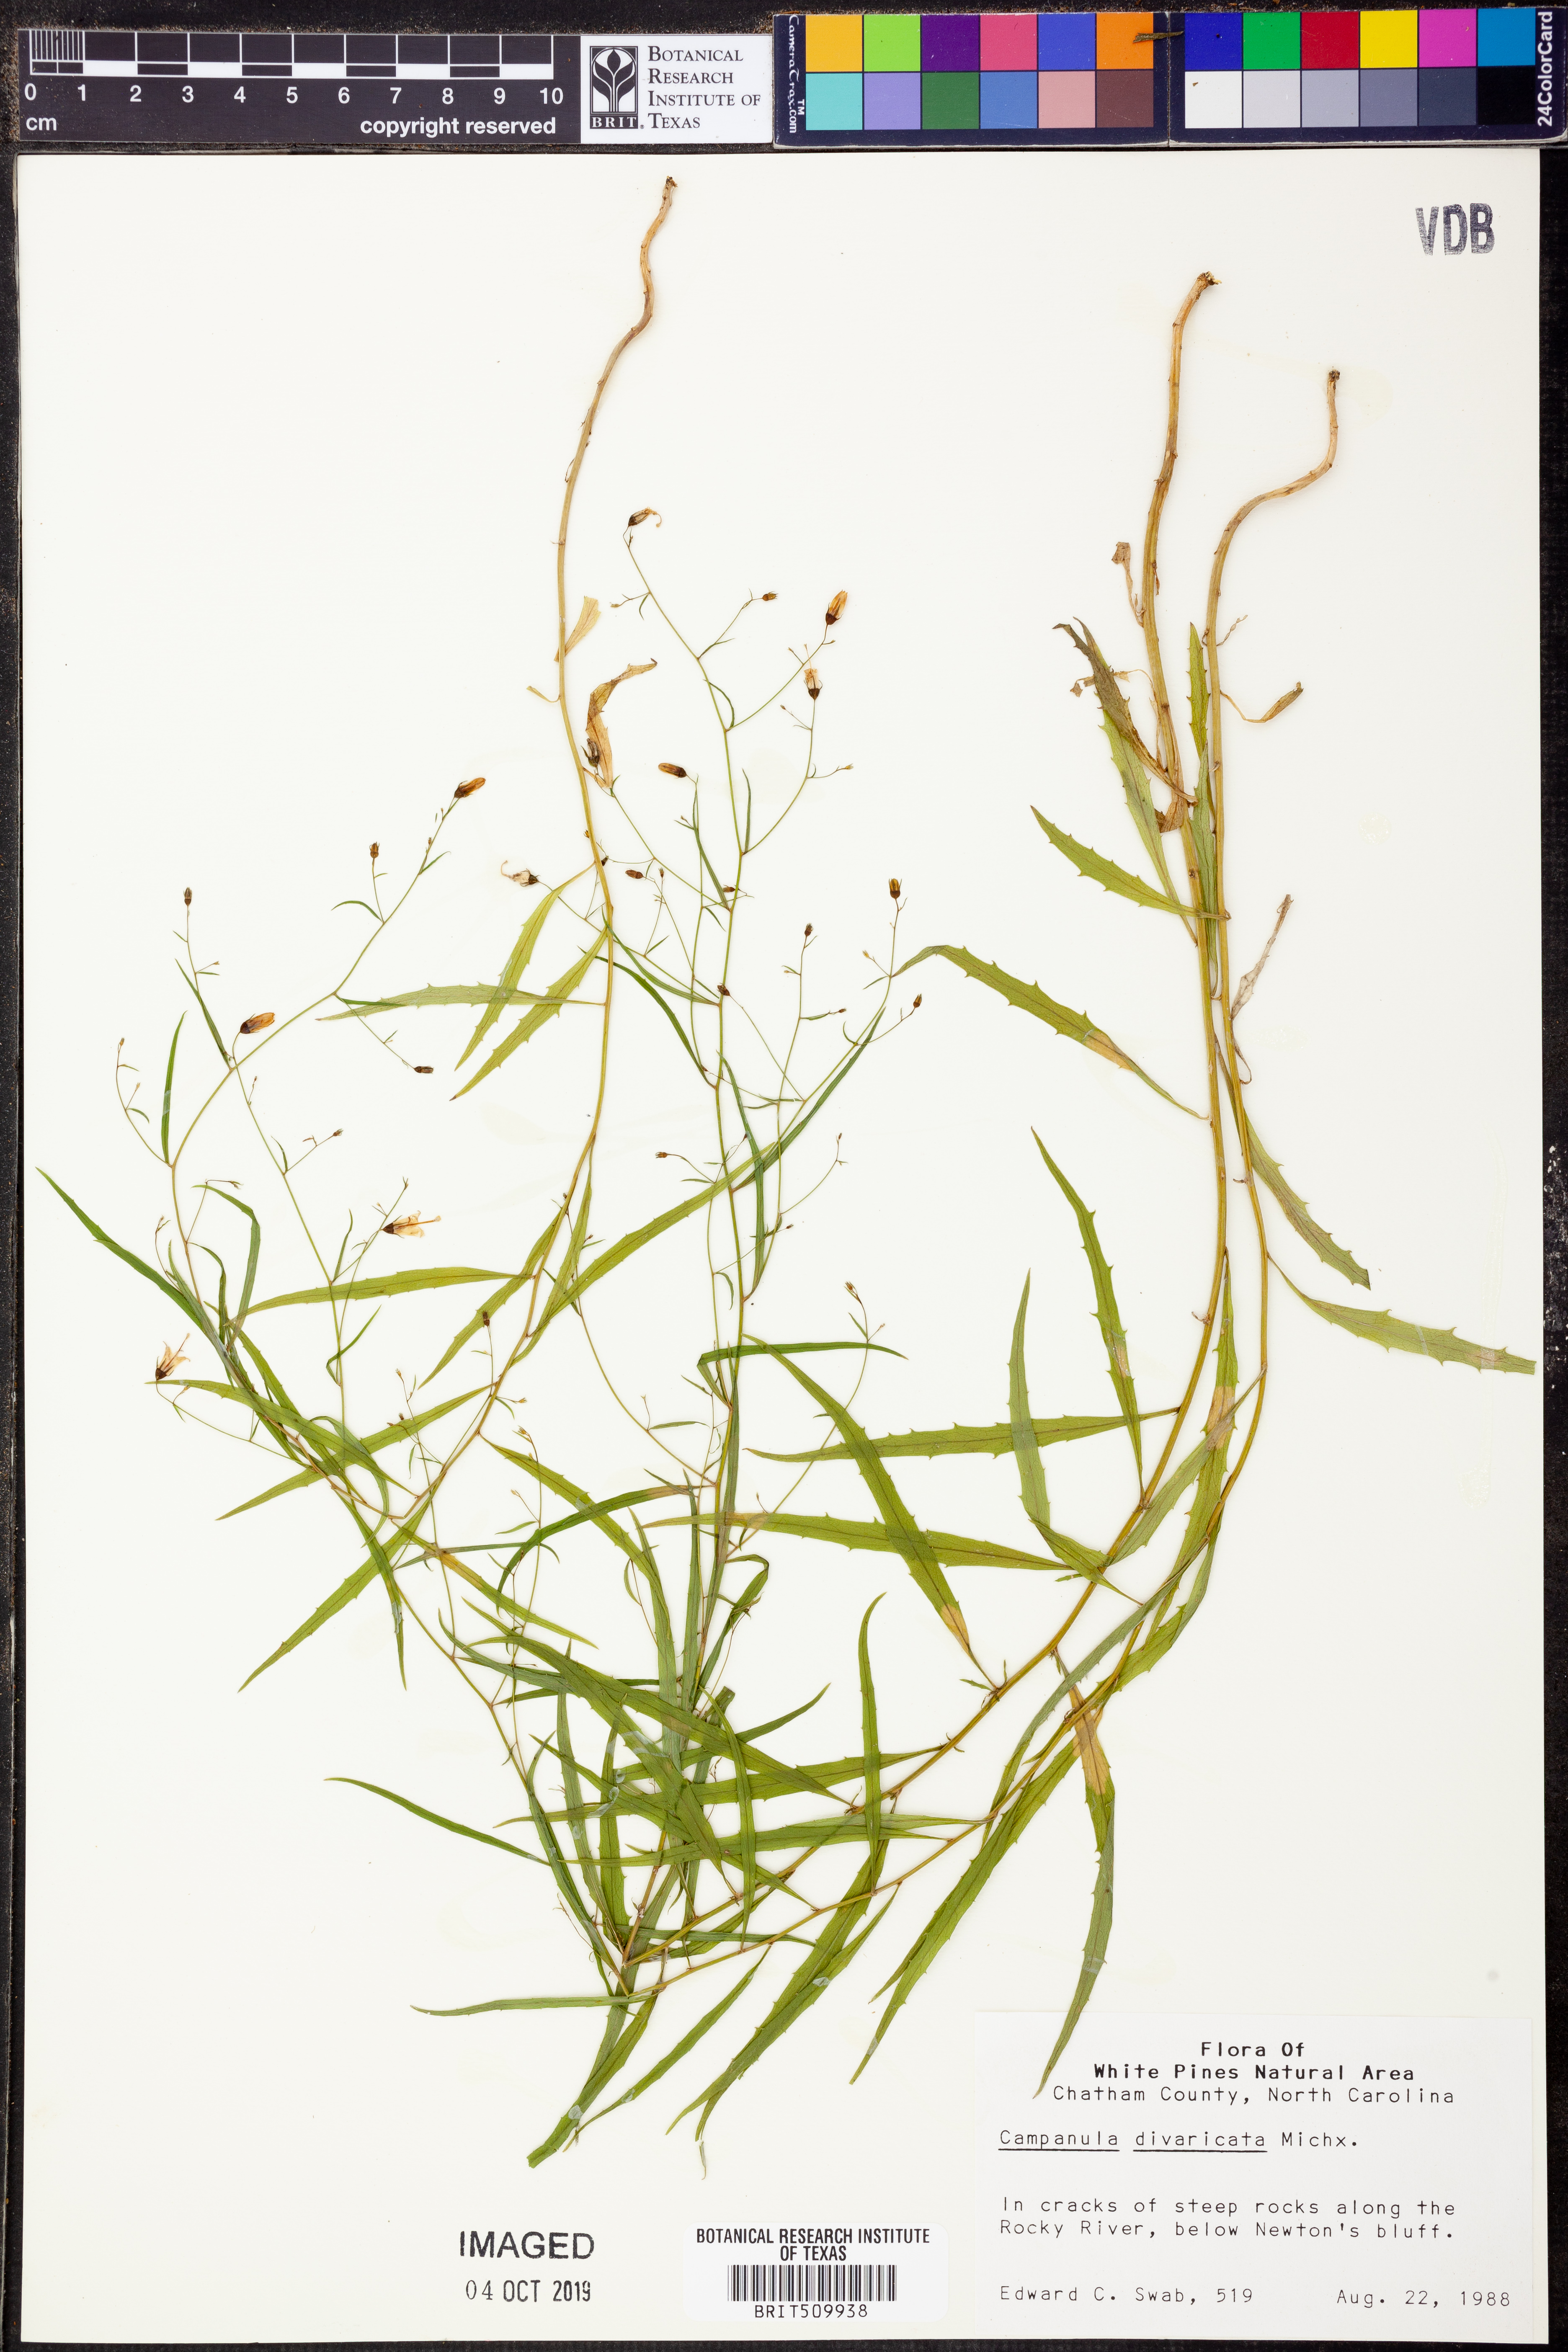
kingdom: Plantae
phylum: Tracheophyta
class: Magnoliopsida
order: Asterales
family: Campanulaceae
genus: Campanula
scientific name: Campanula divaricata
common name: Appalachian bellflower
